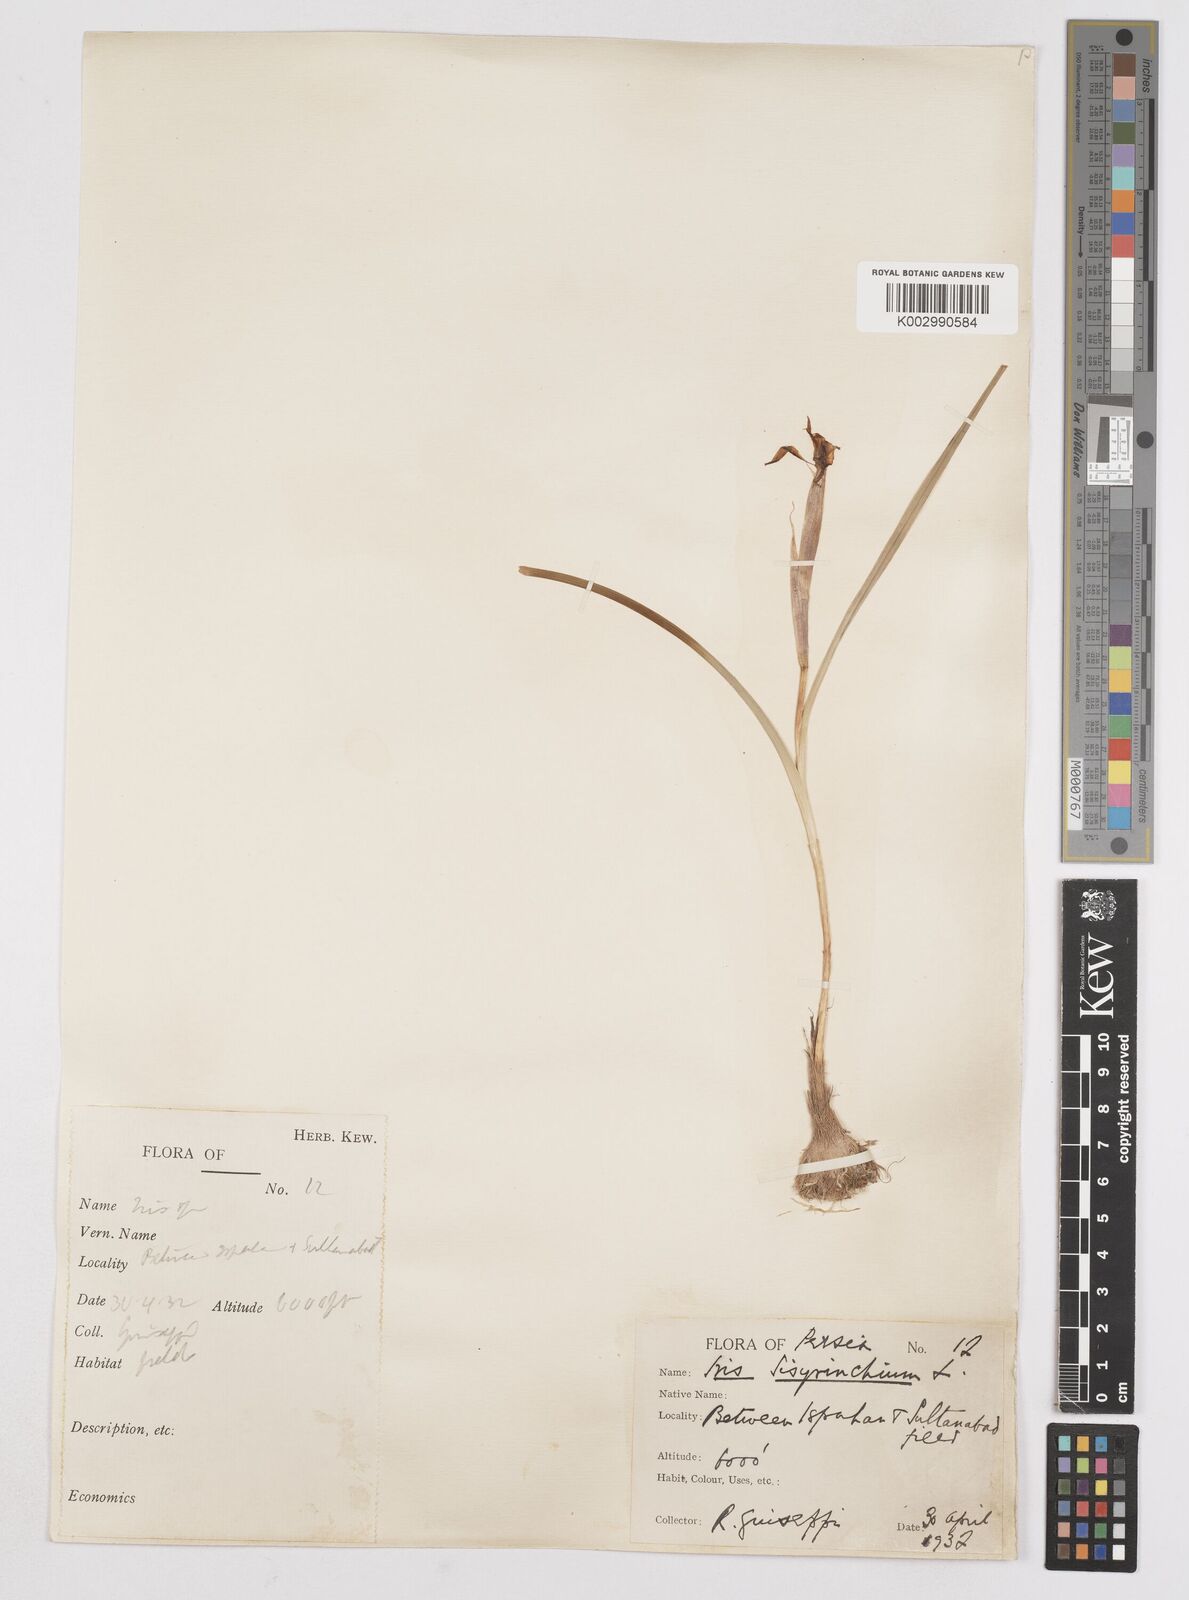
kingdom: Plantae
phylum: Tracheophyta
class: Liliopsida
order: Asparagales
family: Iridaceae
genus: Moraea
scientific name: Moraea sisyrinchium
